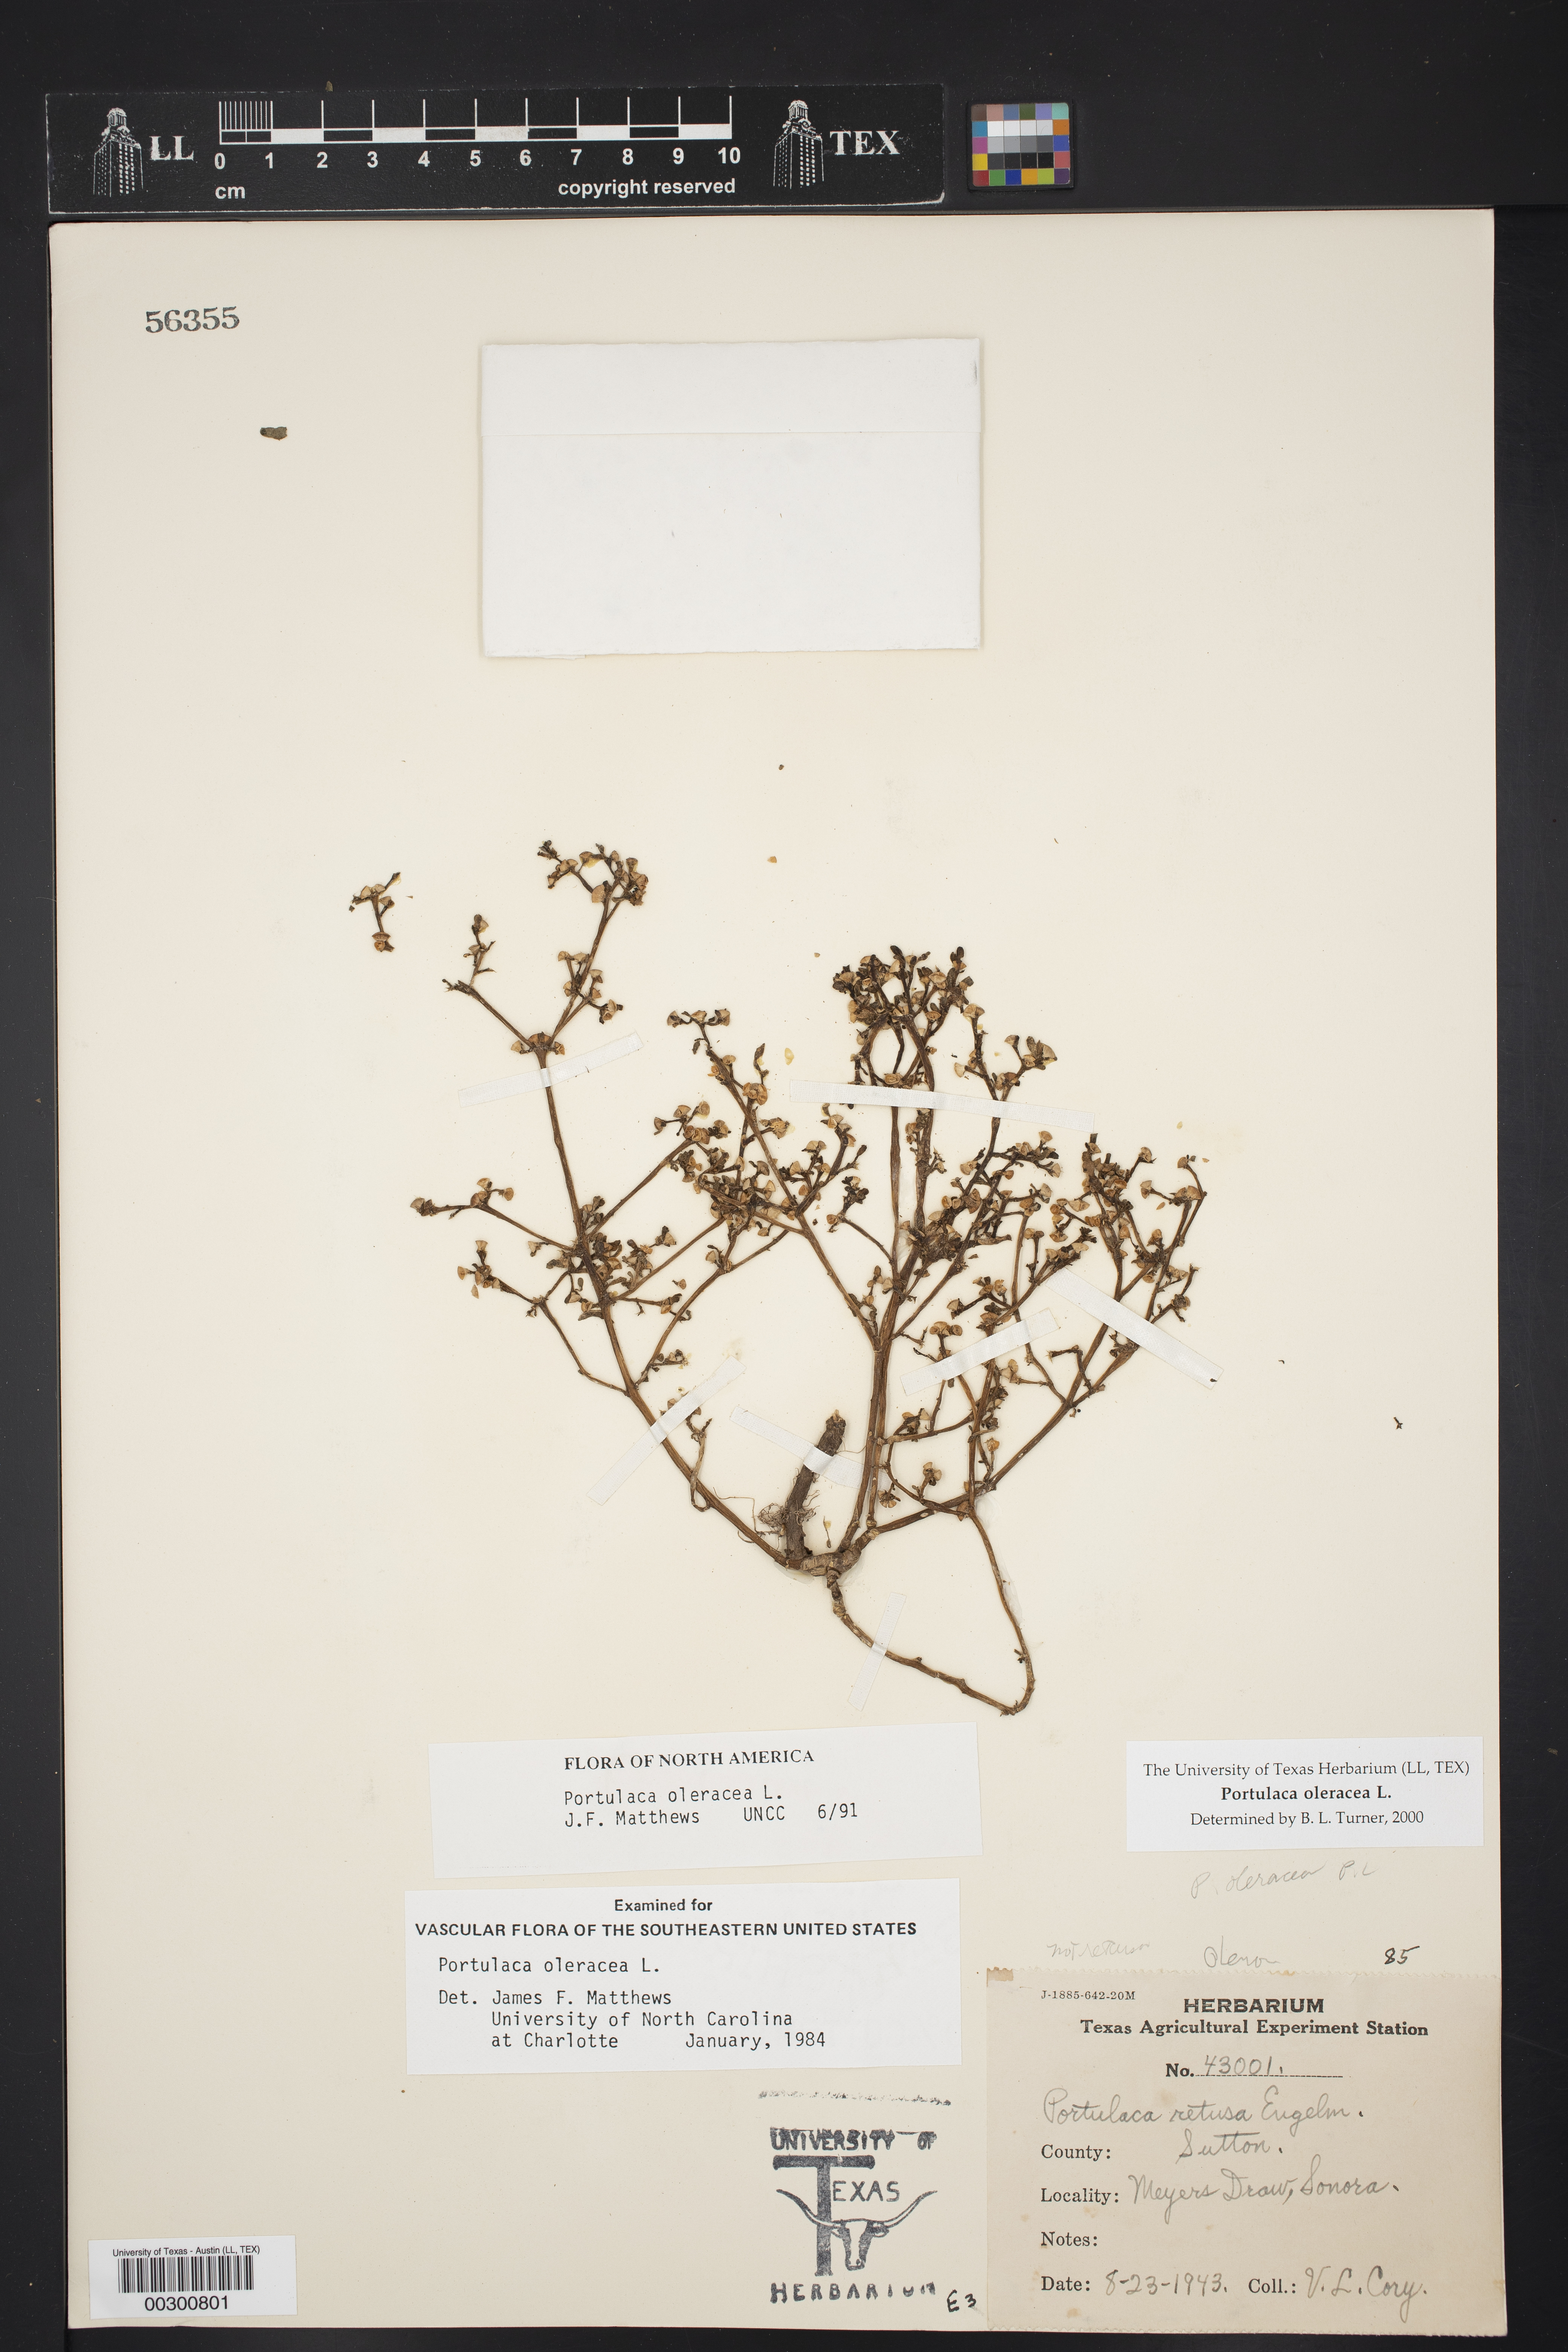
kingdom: Plantae
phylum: Tracheophyta
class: Magnoliopsida
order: Caryophyllales
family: Portulacaceae
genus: Portulaca
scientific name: Portulaca oleracea
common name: Common purslane
